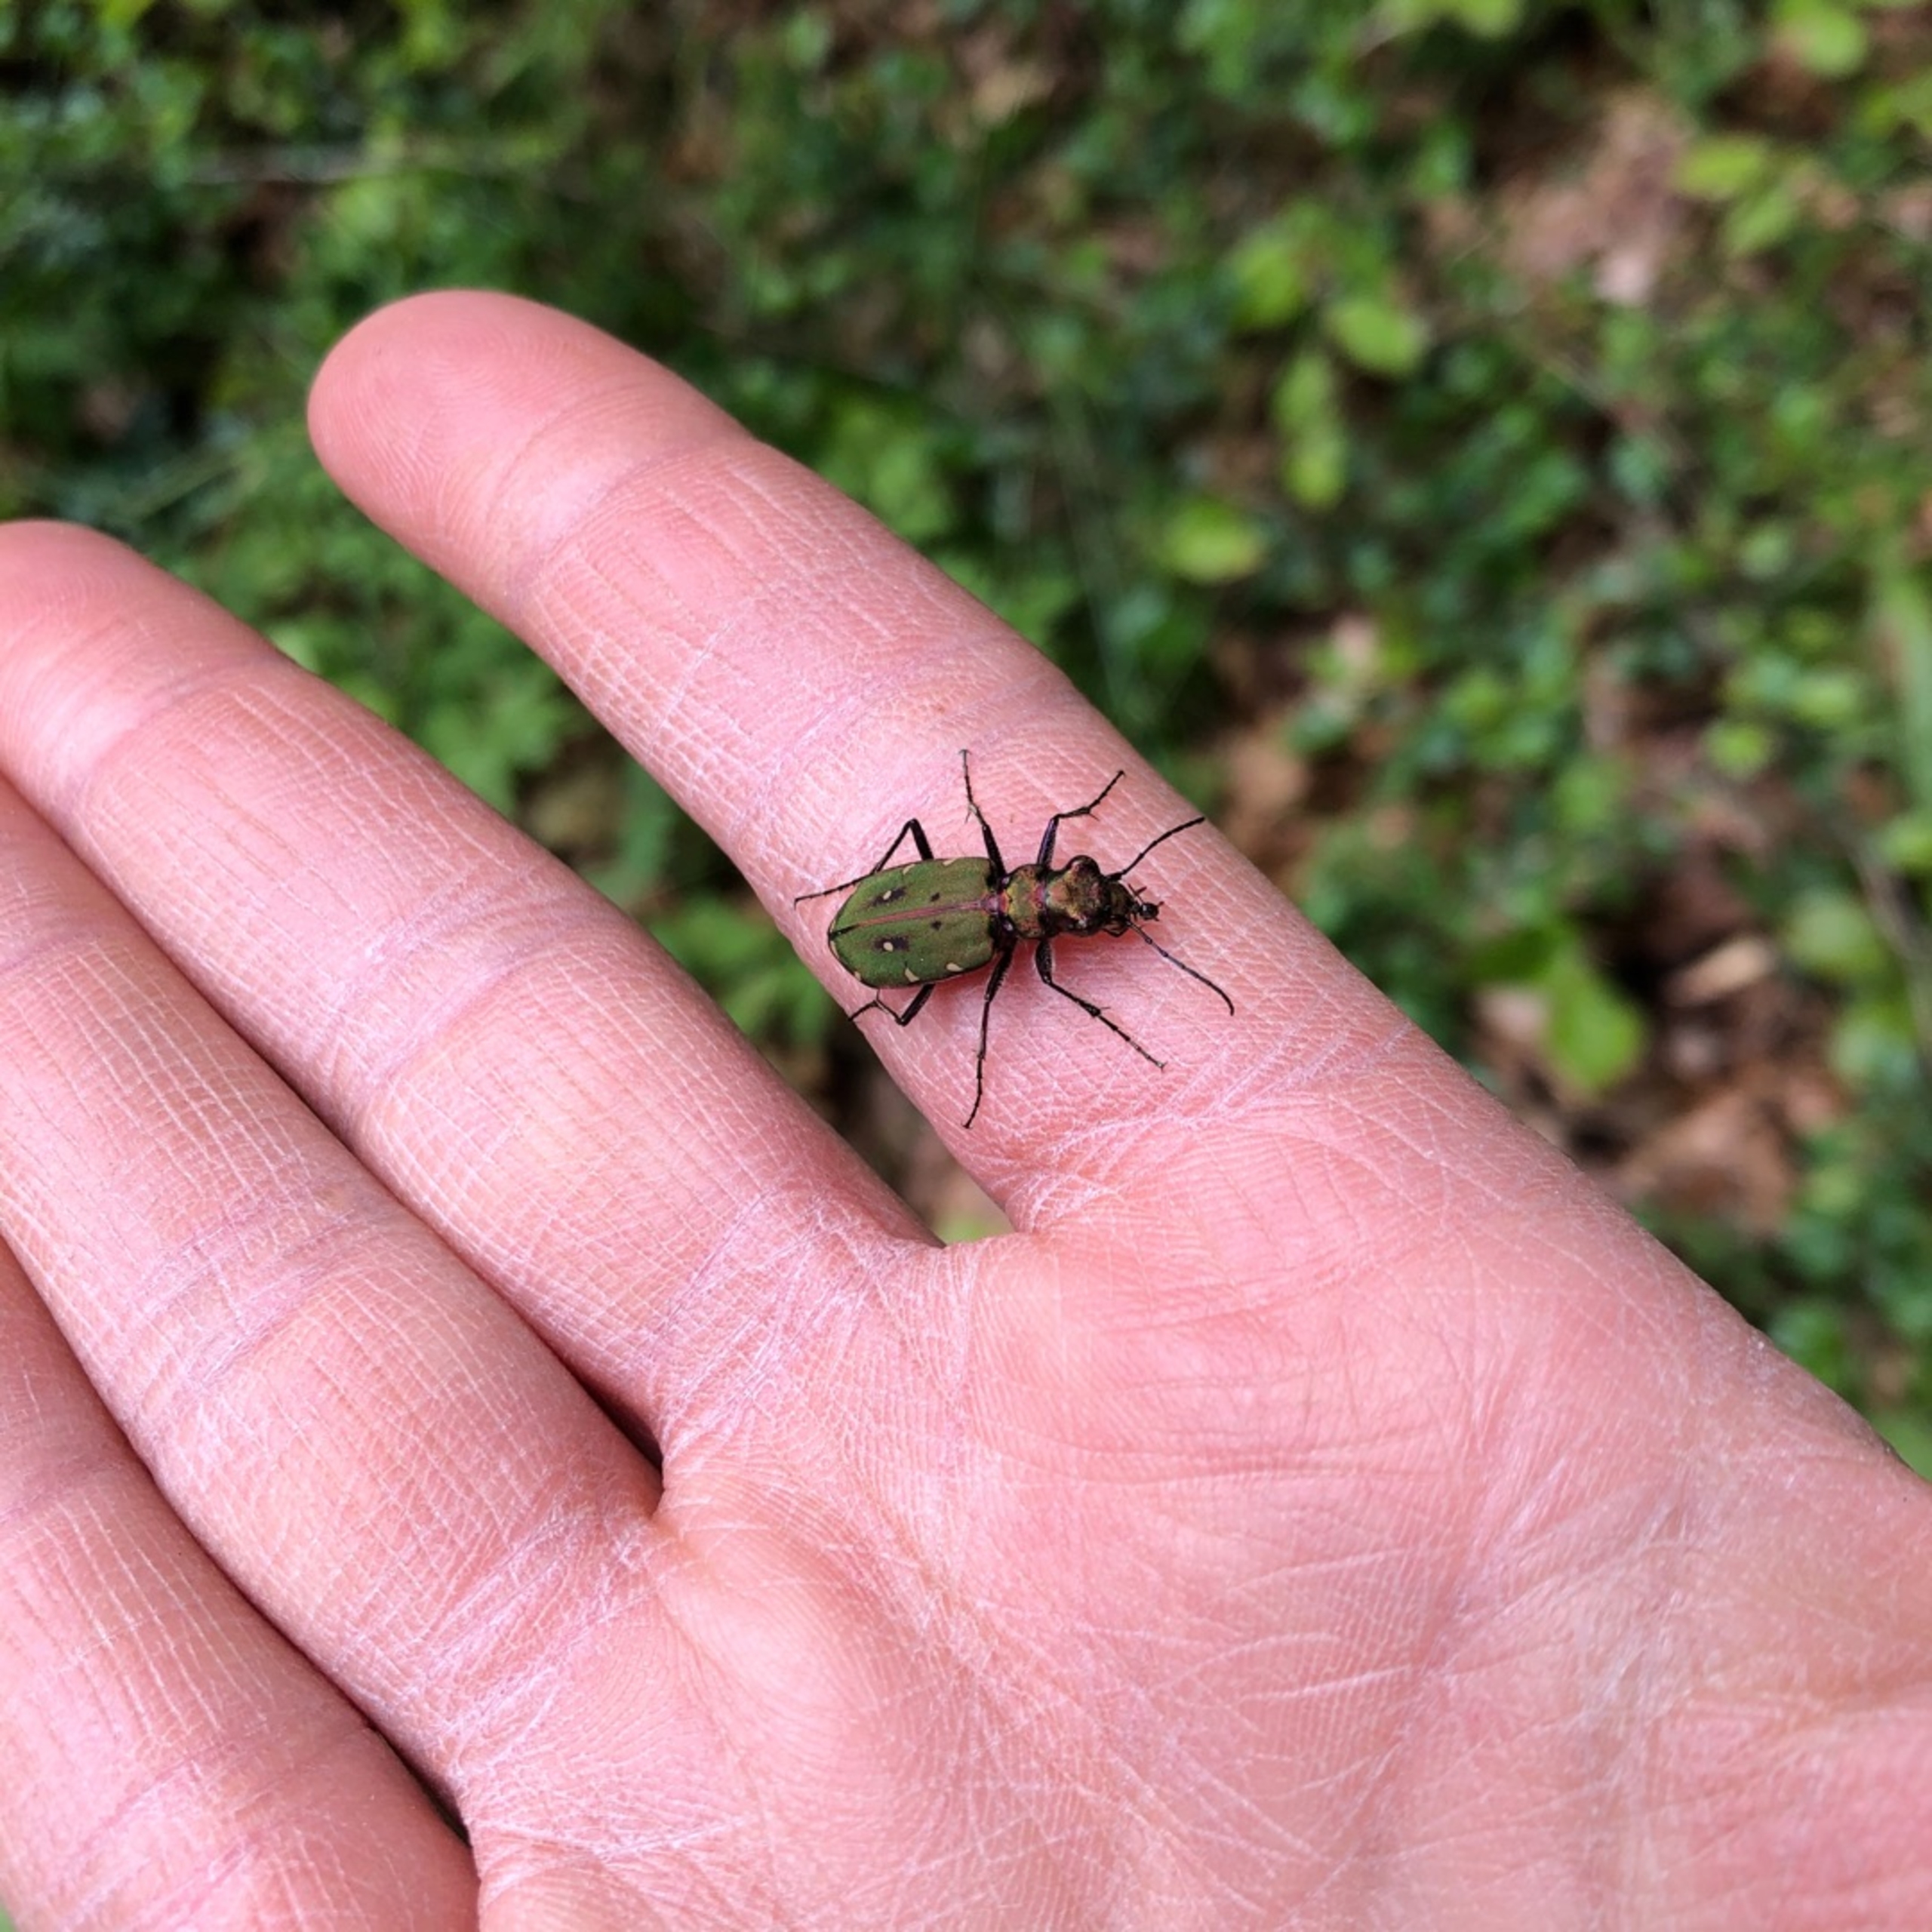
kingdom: Animalia
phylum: Arthropoda
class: Insecta
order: Coleoptera
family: Carabidae
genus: Cicindela
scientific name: Cicindela campestris
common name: Grøn sandspringer
